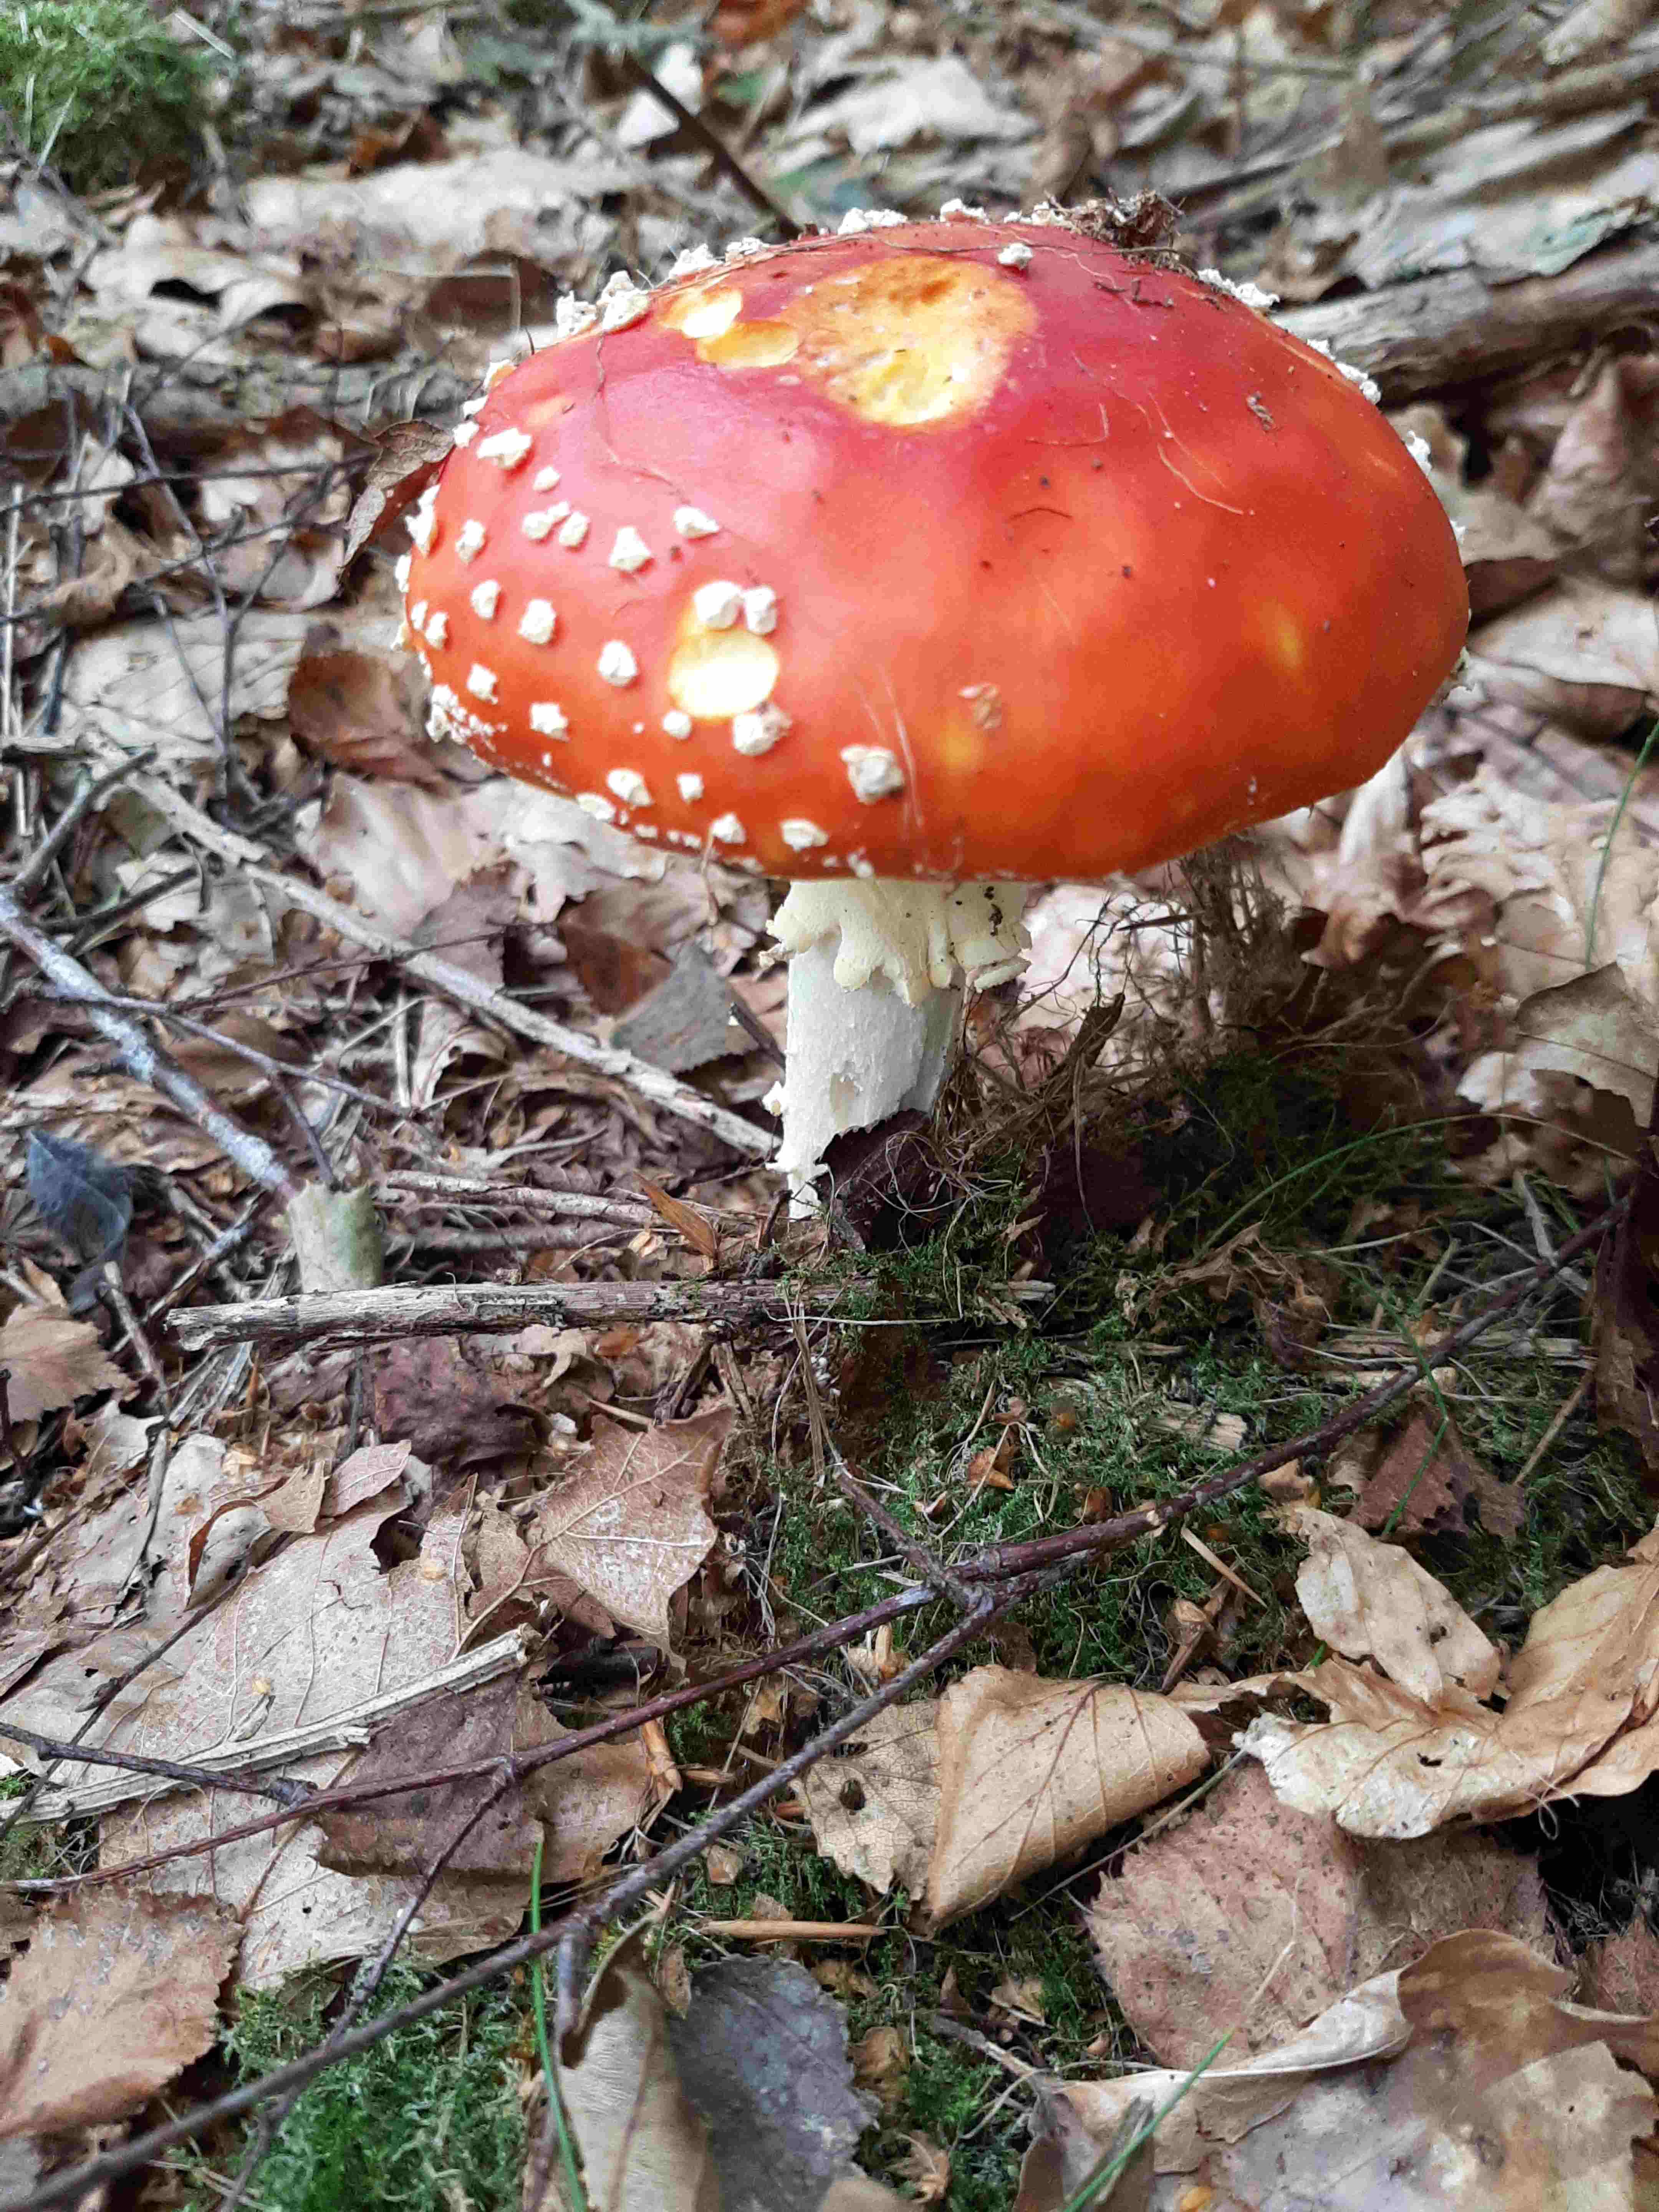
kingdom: Fungi
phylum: Basidiomycota
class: Agaricomycetes
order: Agaricales
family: Amanitaceae
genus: Amanita
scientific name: Amanita muscaria
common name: rød fluesvamp
